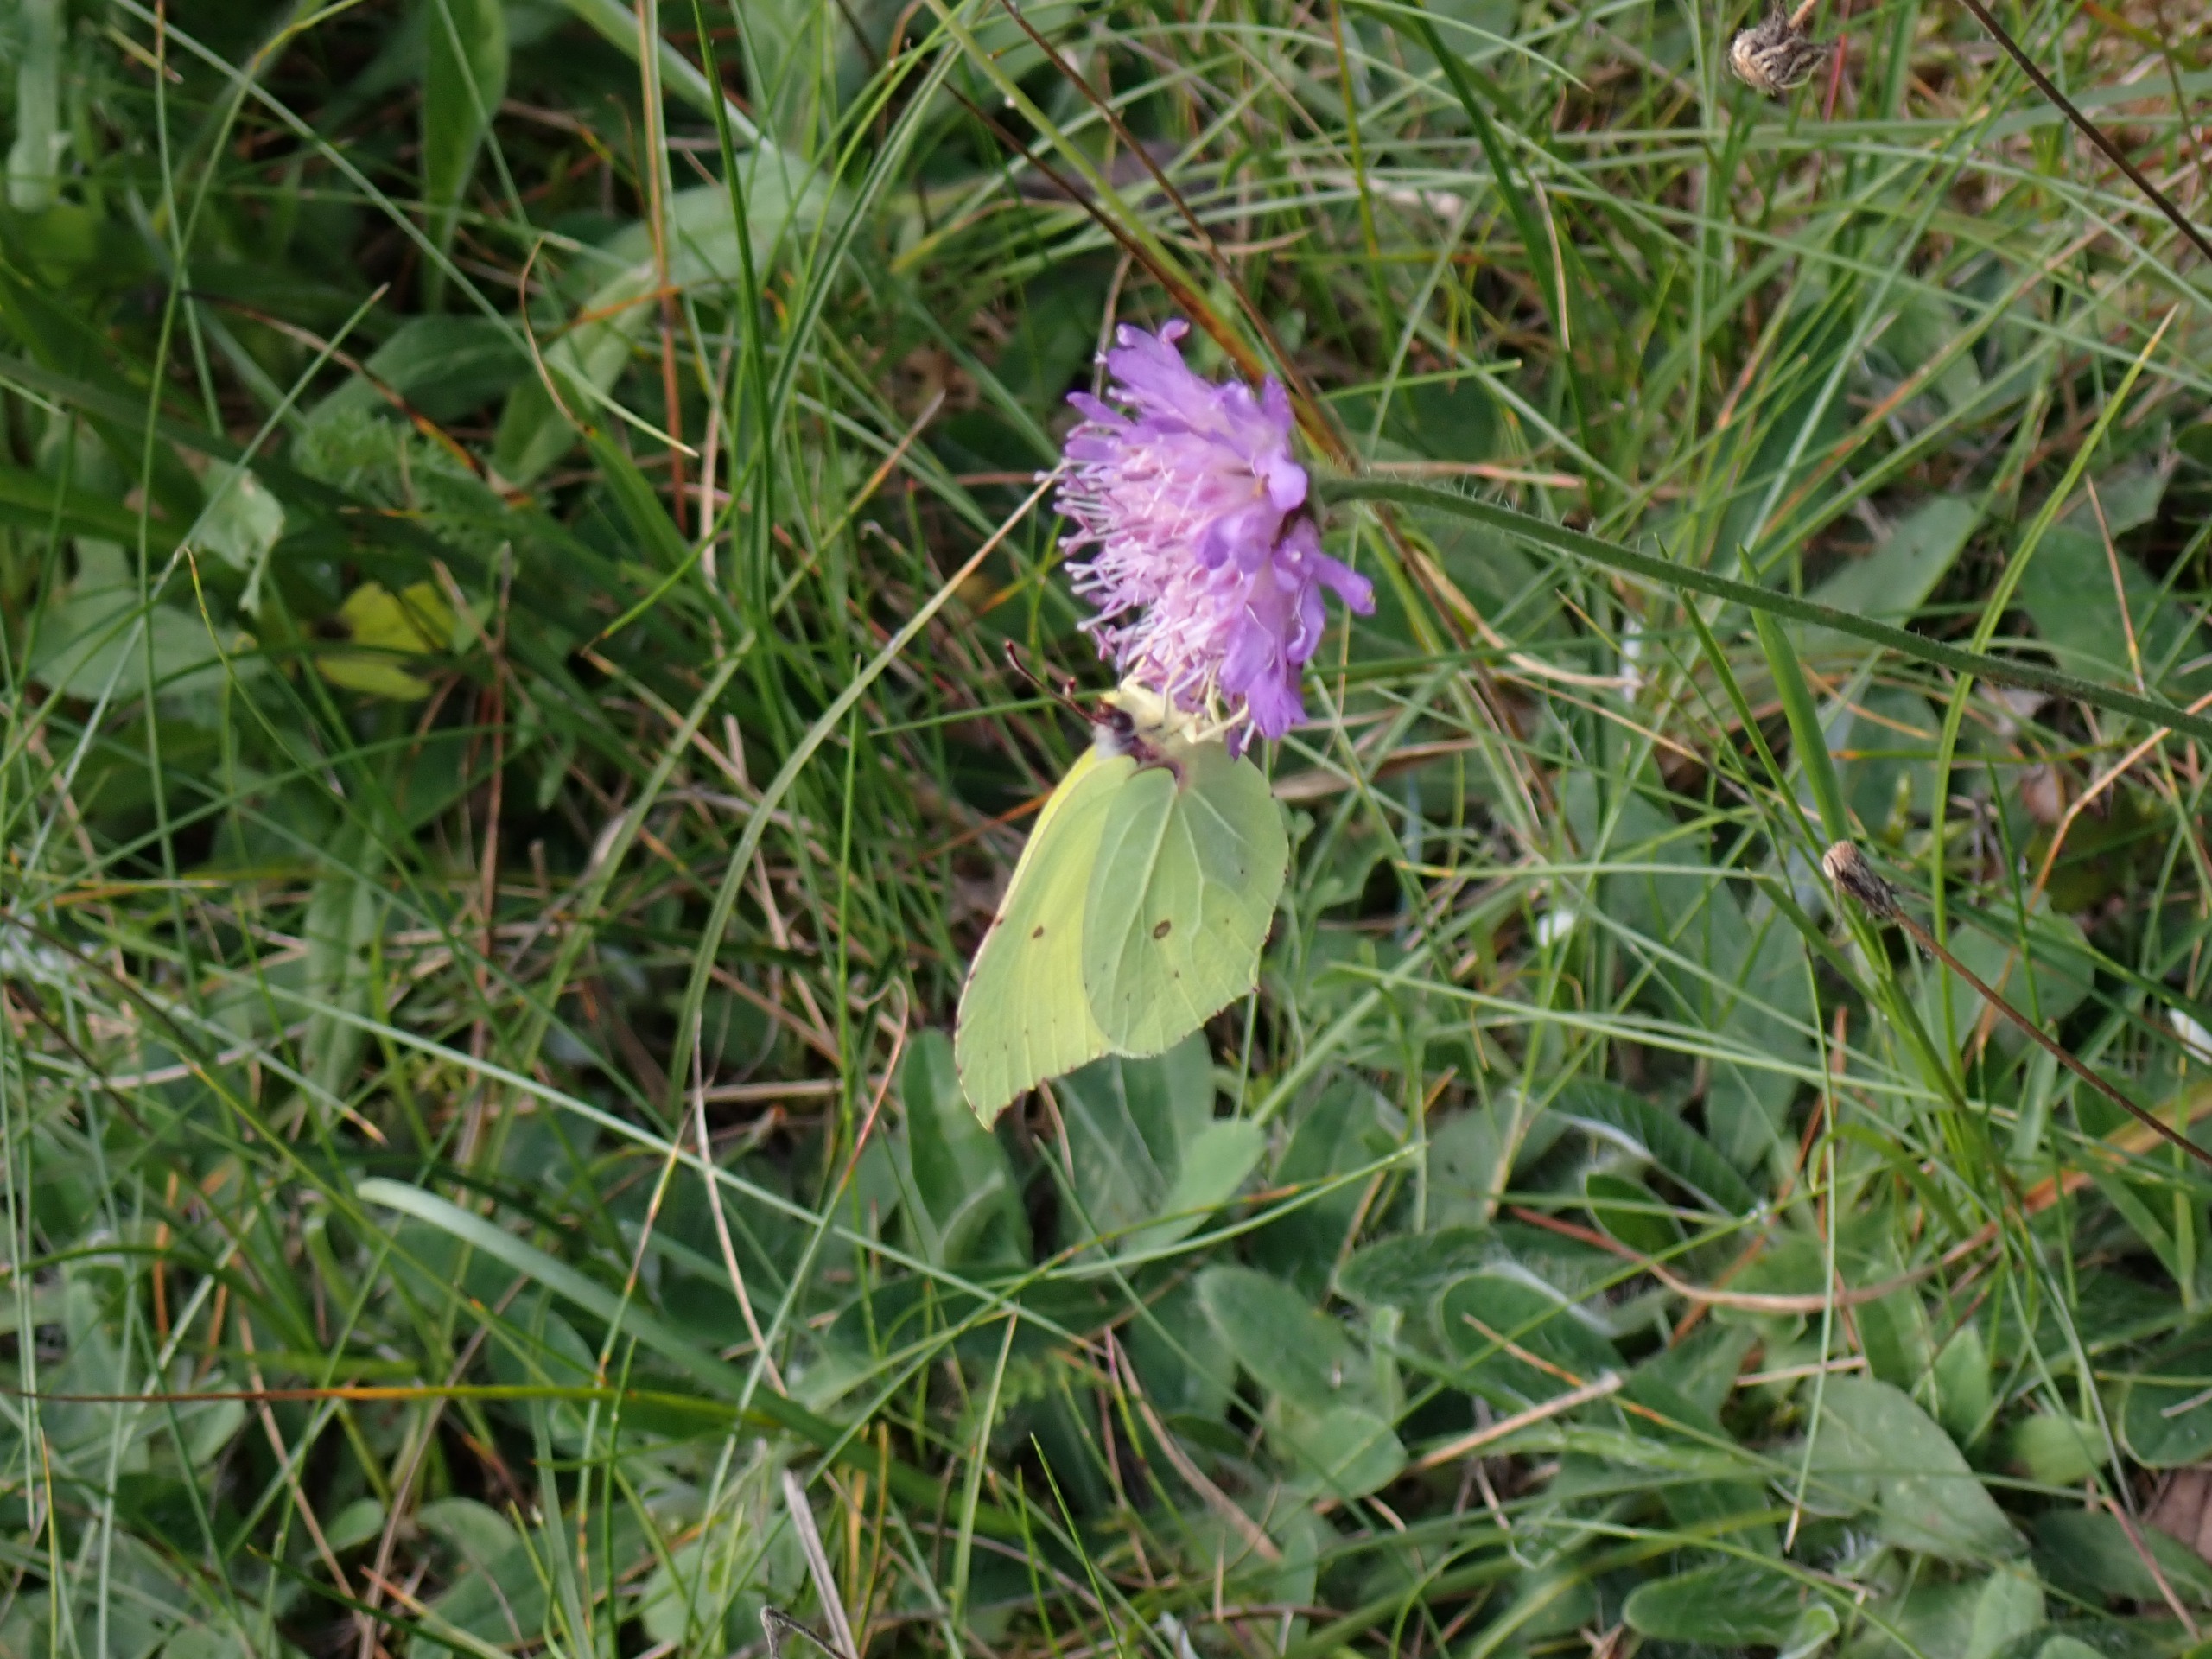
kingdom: Animalia
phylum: Arthropoda
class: Insecta
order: Lepidoptera
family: Pieridae
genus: Gonepteryx
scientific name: Gonepteryx rhamni
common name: Citronsommerfugl
